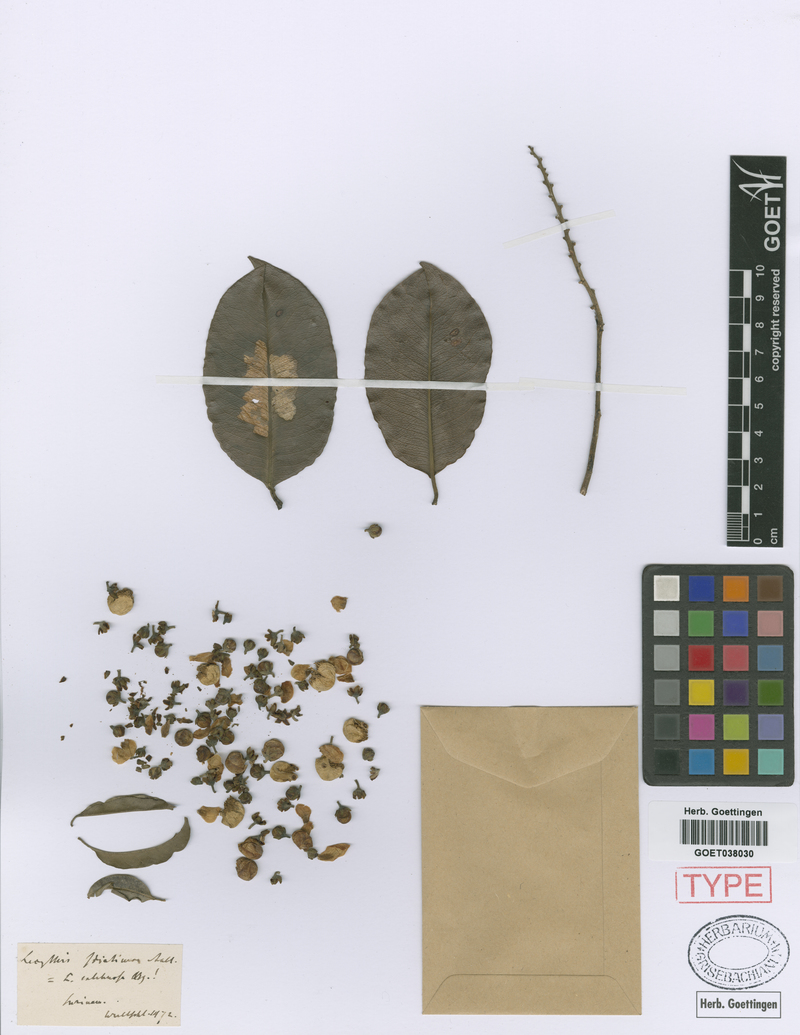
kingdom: Plantae
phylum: Tracheophyta
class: Magnoliopsida
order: Ericales
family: Lecythidaceae
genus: Lecythis
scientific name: Lecythis corrugata
